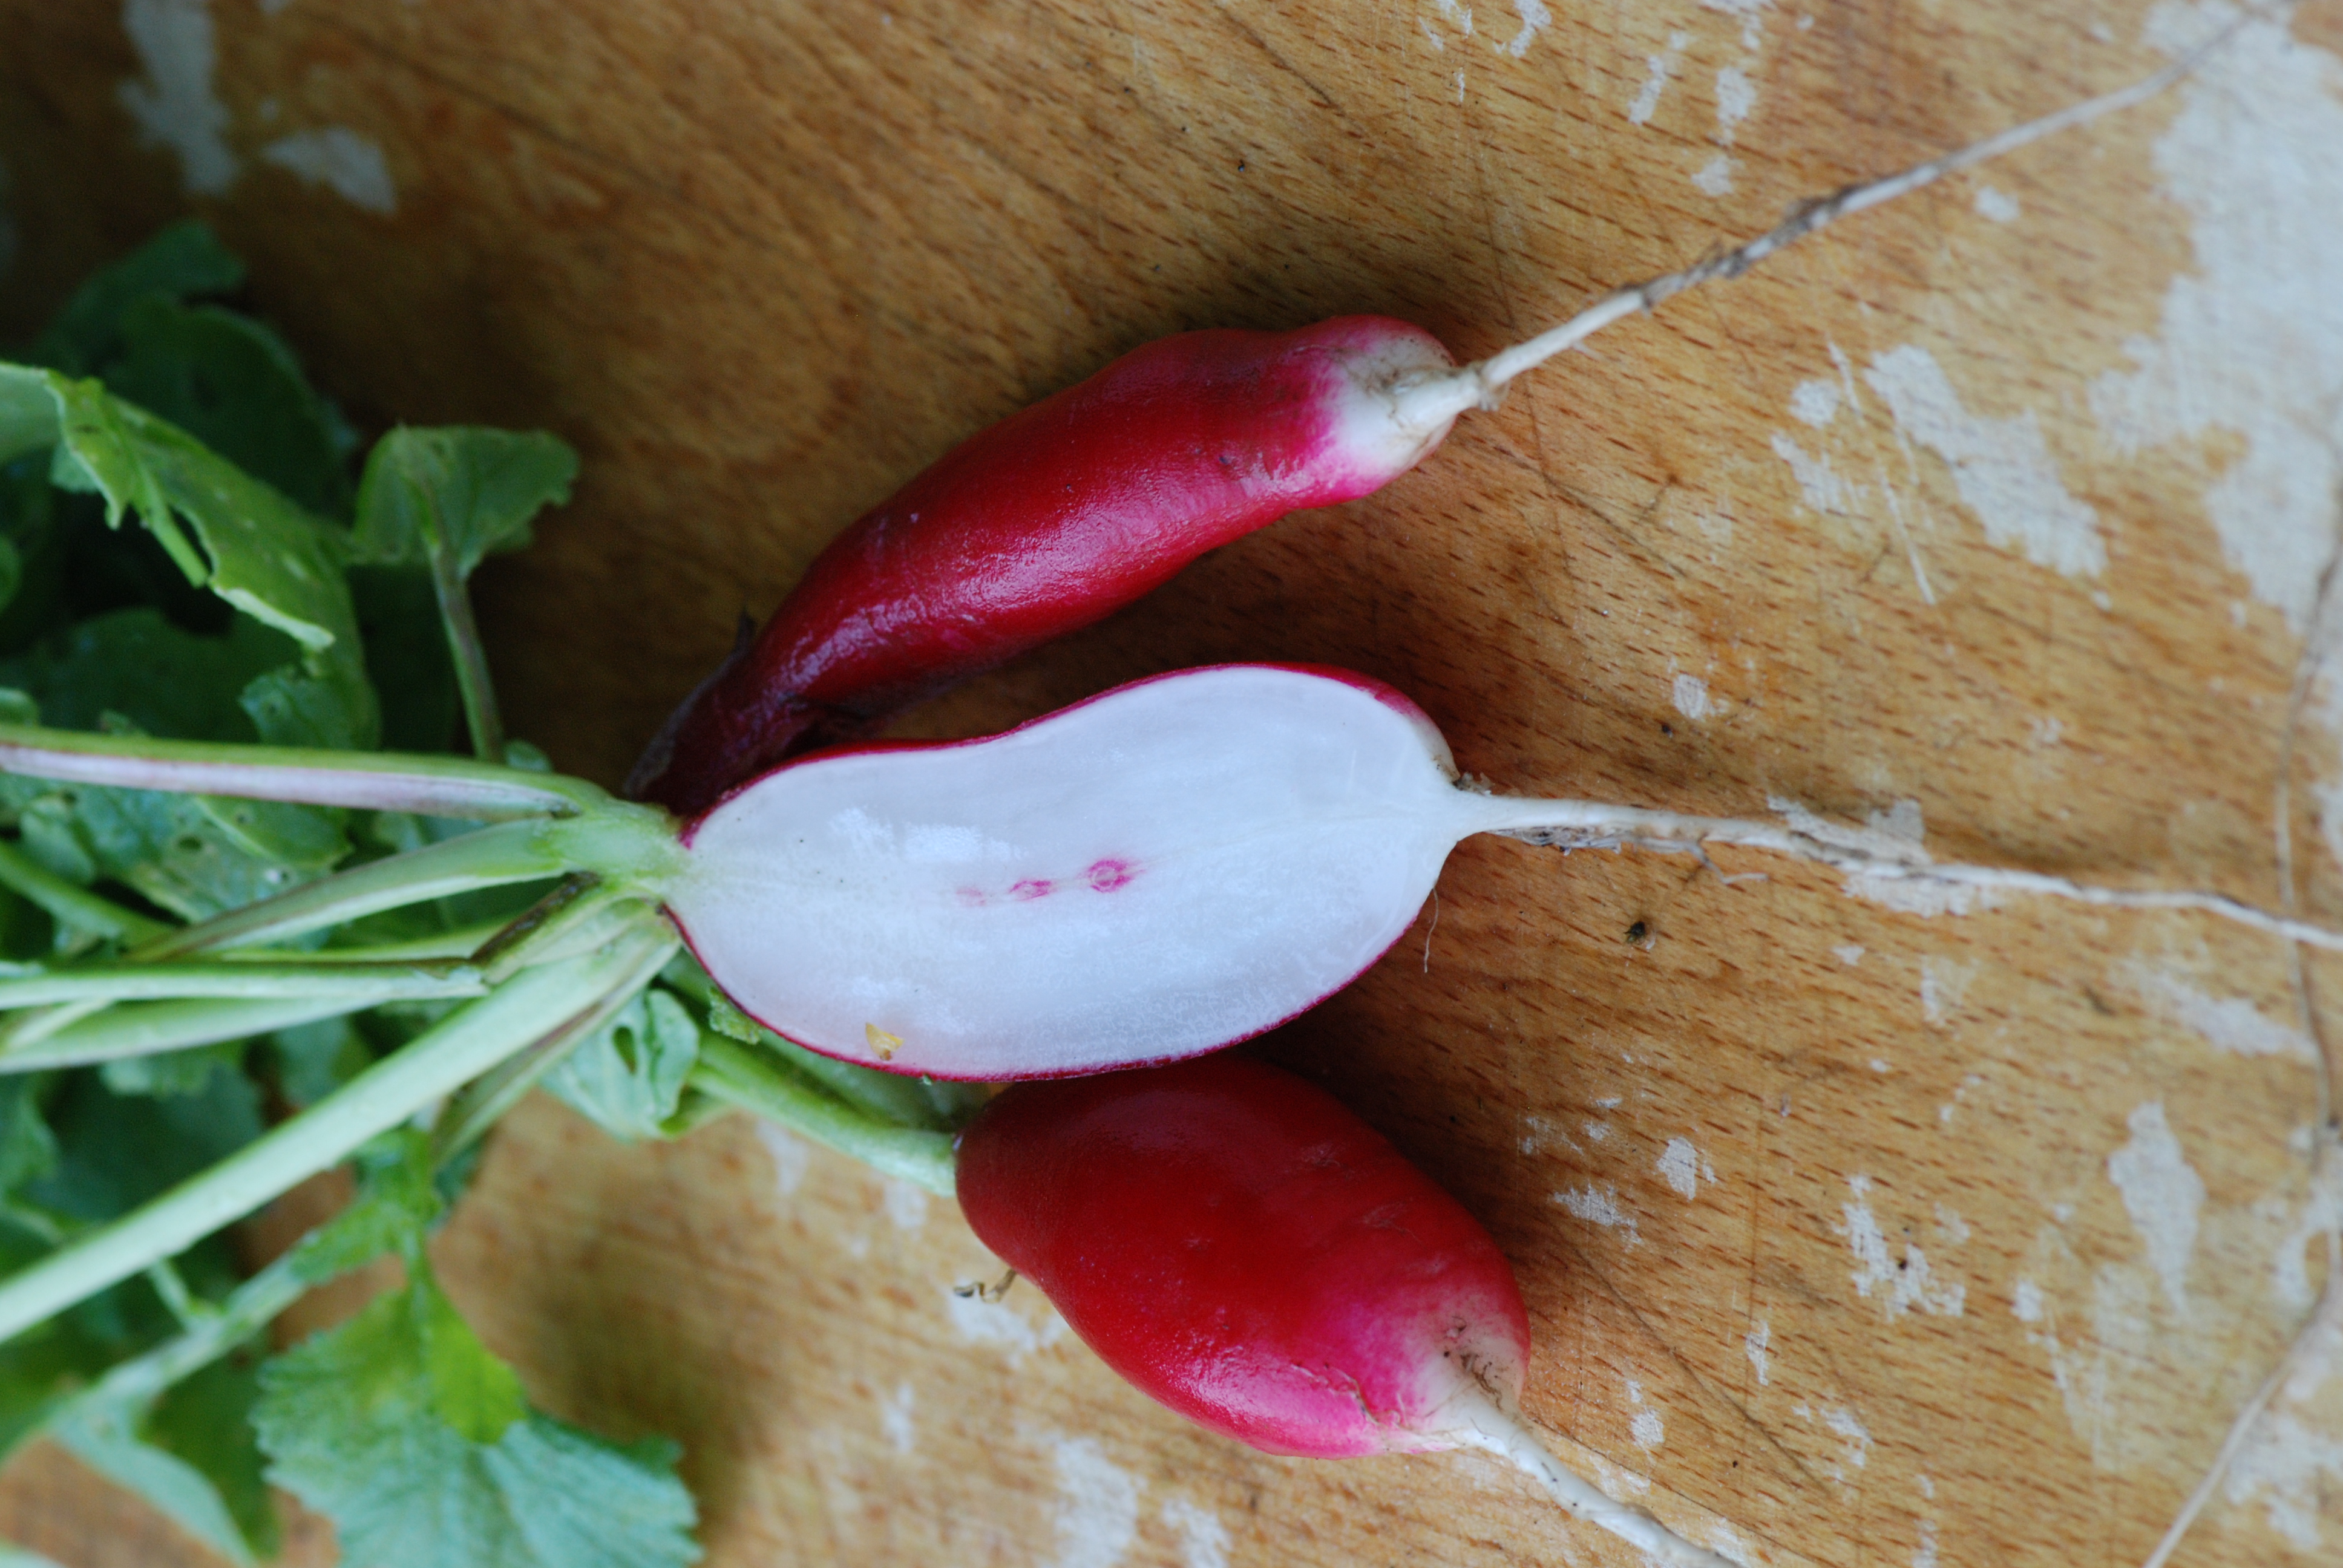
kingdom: Plantae
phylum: Tracheophyta
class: Magnoliopsida
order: Brassicales
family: Brassicaceae
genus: Raphanus
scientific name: Raphanus sativus
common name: Cultivated radish
